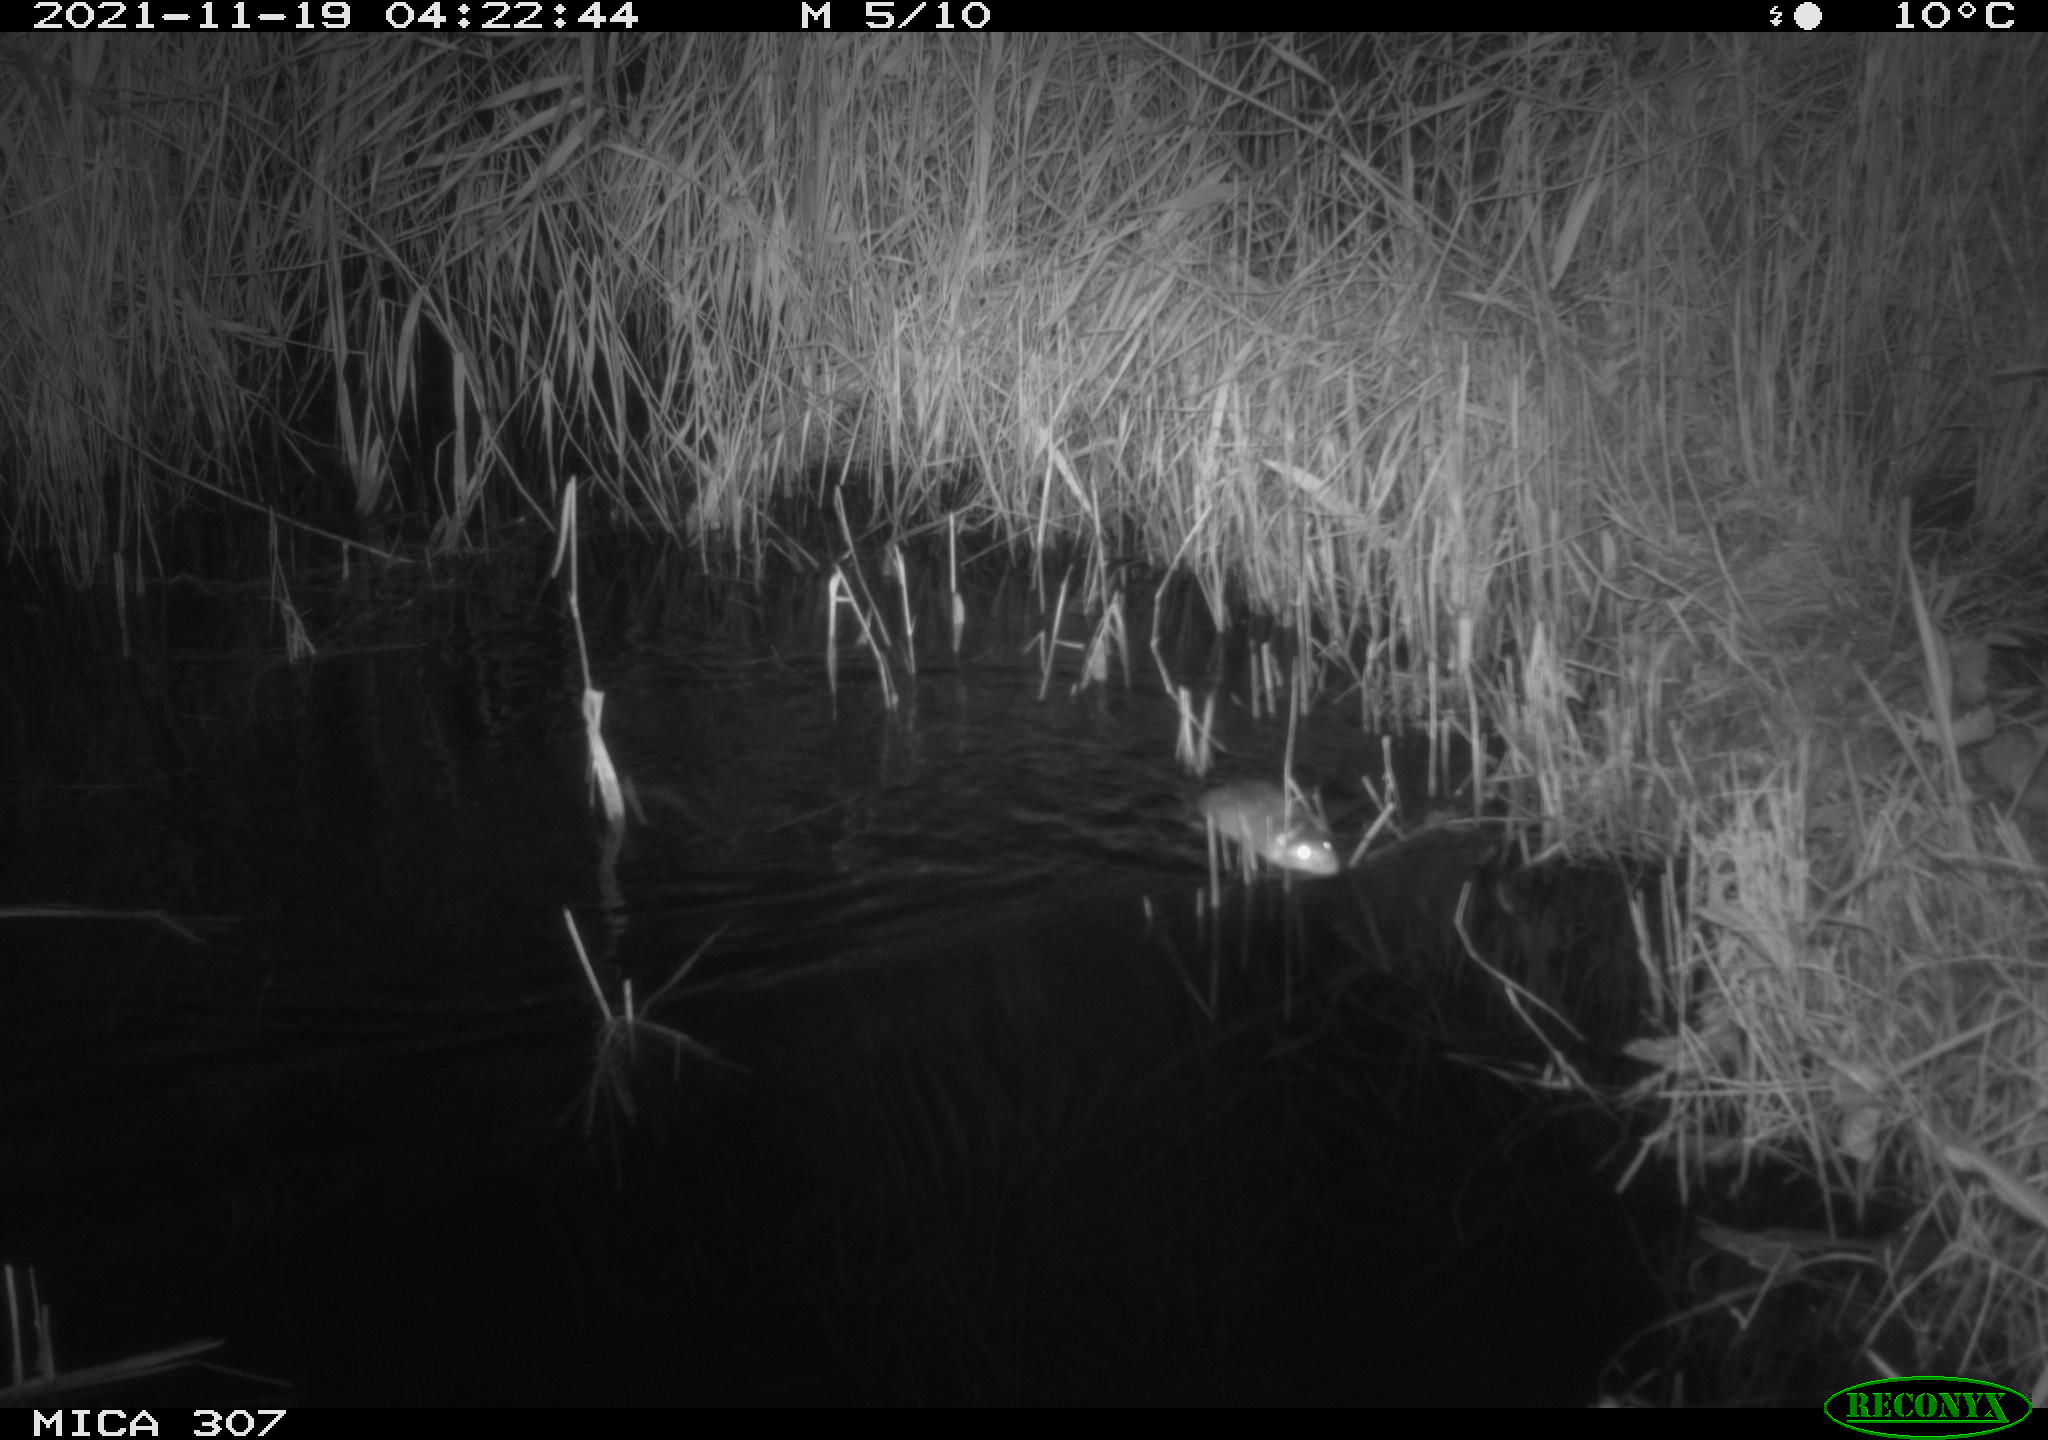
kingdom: Animalia
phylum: Chordata
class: Mammalia
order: Rodentia
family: Muridae
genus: Rattus
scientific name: Rattus norvegicus
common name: Brown rat
